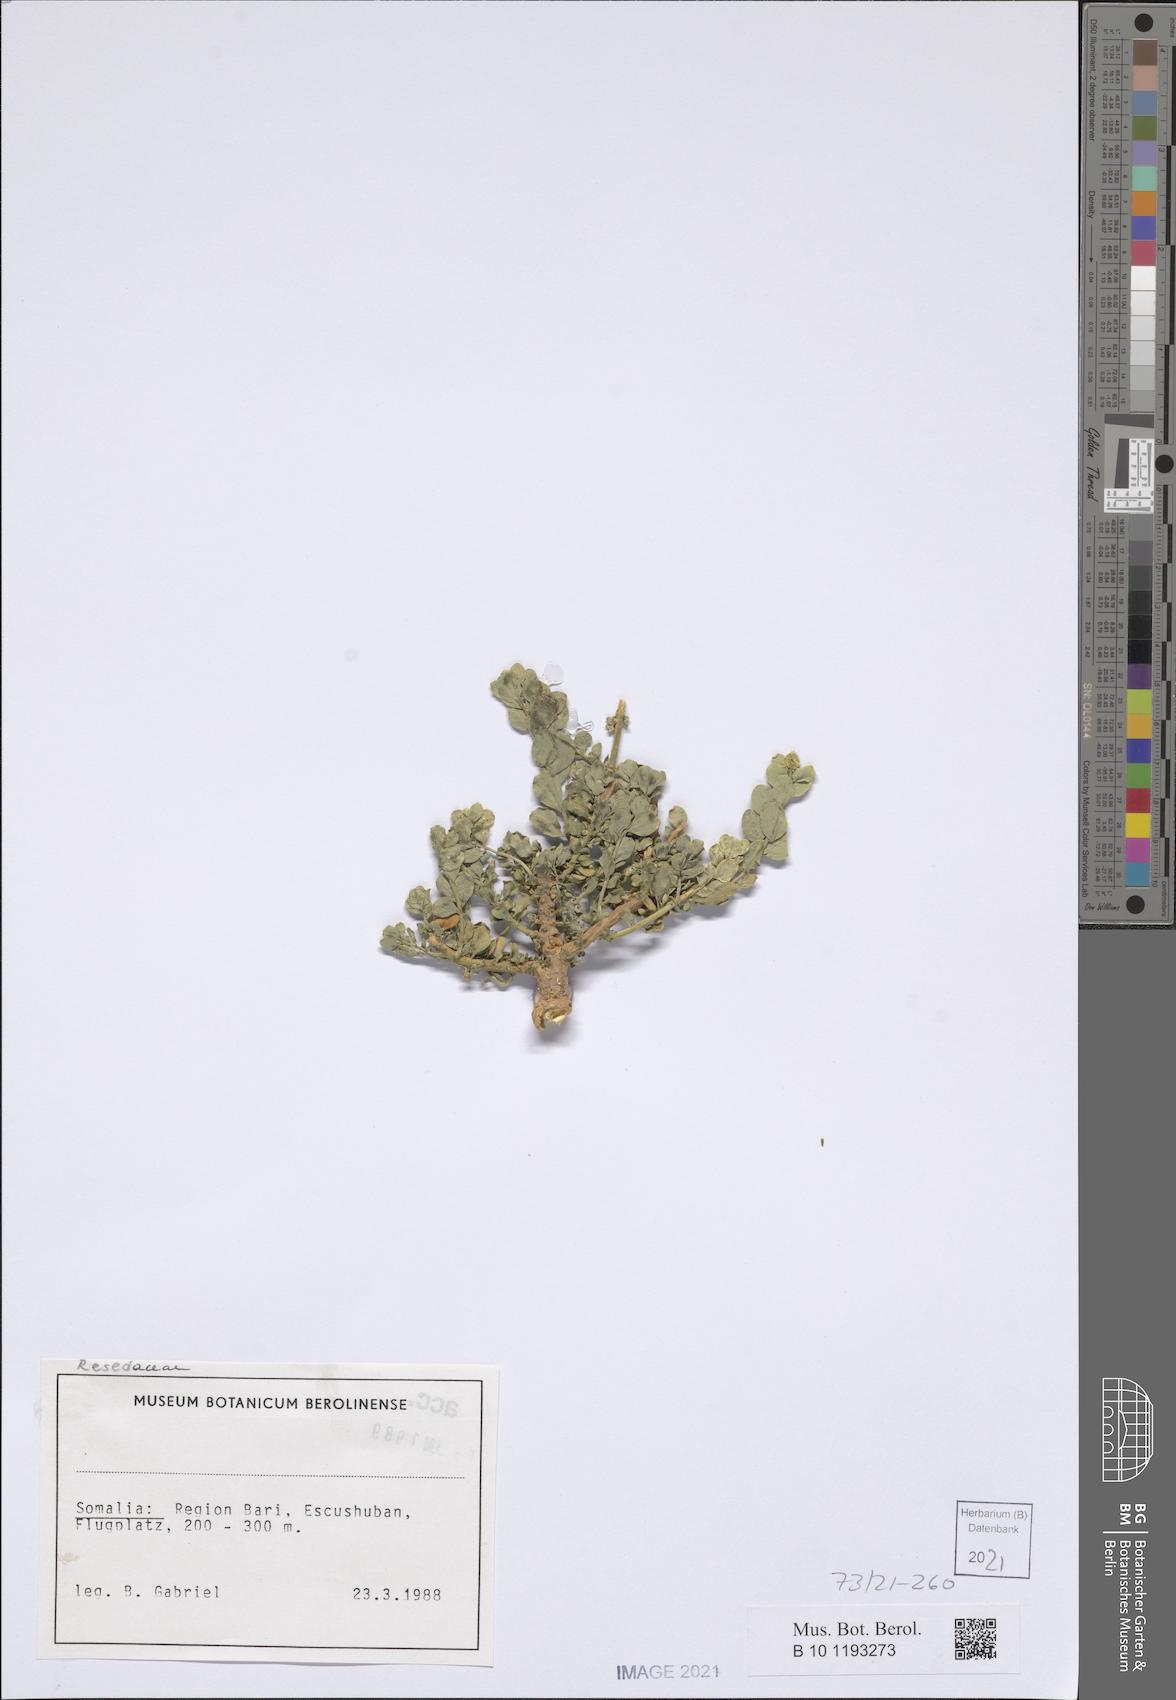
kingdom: Plantae
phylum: Tracheophyta
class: Magnoliopsida
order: Brassicales
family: Resedaceae
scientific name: Resedaceae
